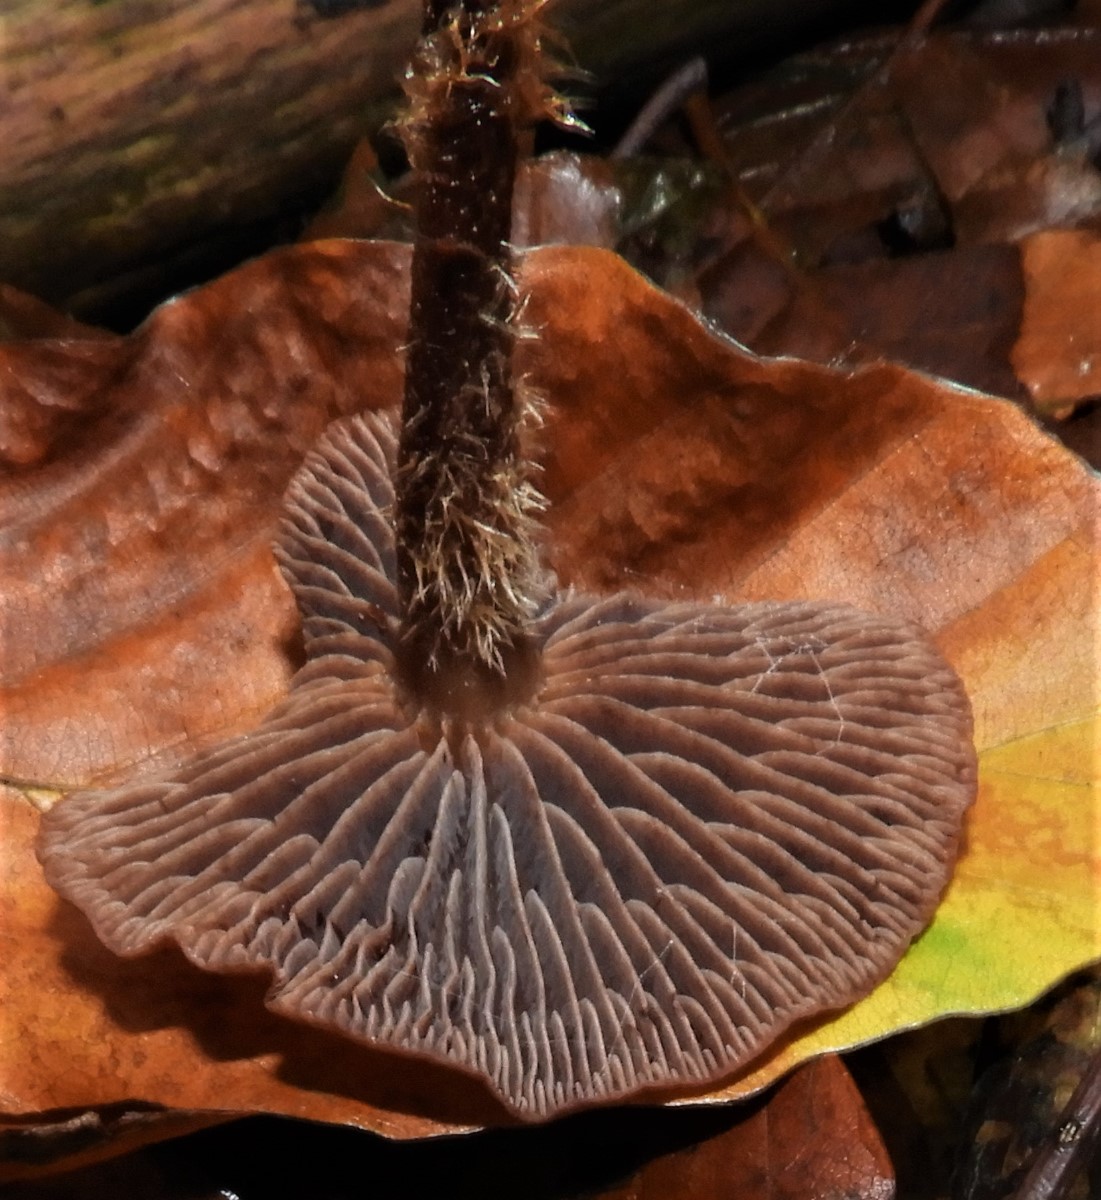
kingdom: Fungi
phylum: Basidiomycota
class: Agaricomycetes
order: Agaricales
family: Omphalotaceae
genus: Gymnopus
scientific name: Gymnopus
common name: fladhat
